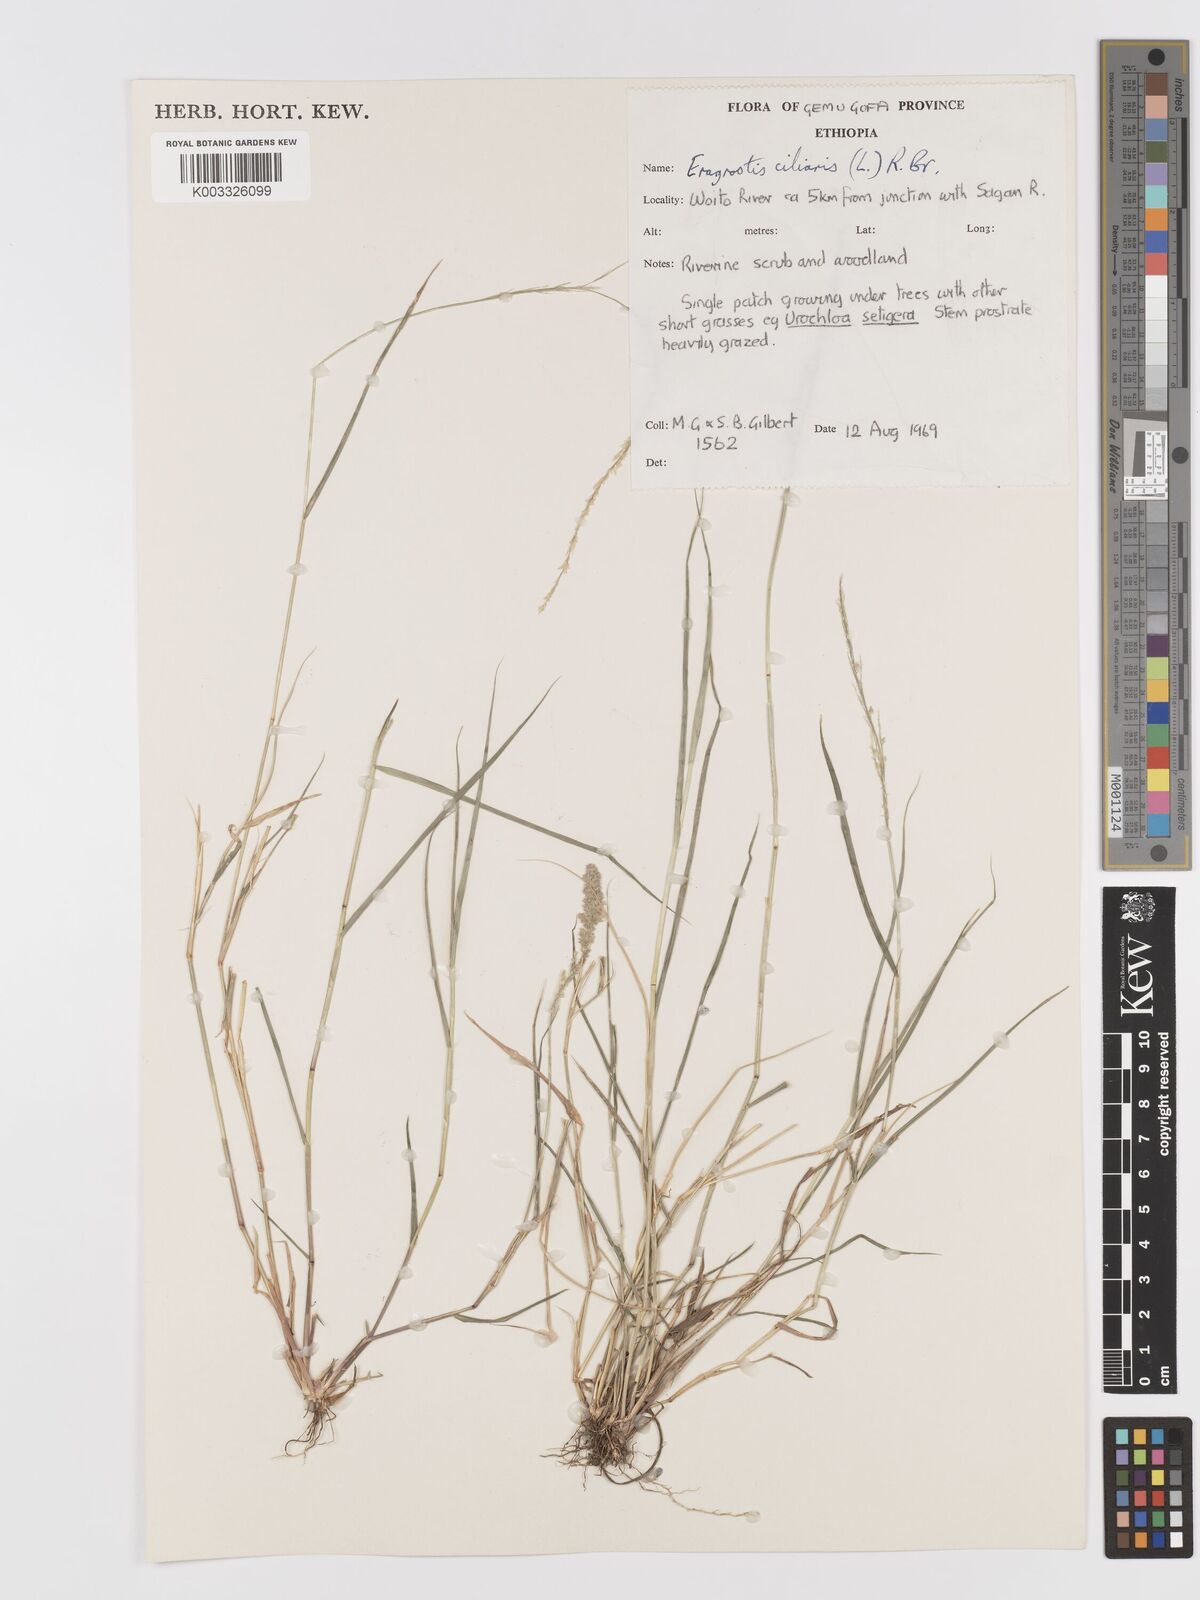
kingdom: Plantae
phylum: Tracheophyta
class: Liliopsida
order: Poales
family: Poaceae
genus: Eragrostis
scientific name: Eragrostis ciliaris
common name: Gophertail lovegrass
